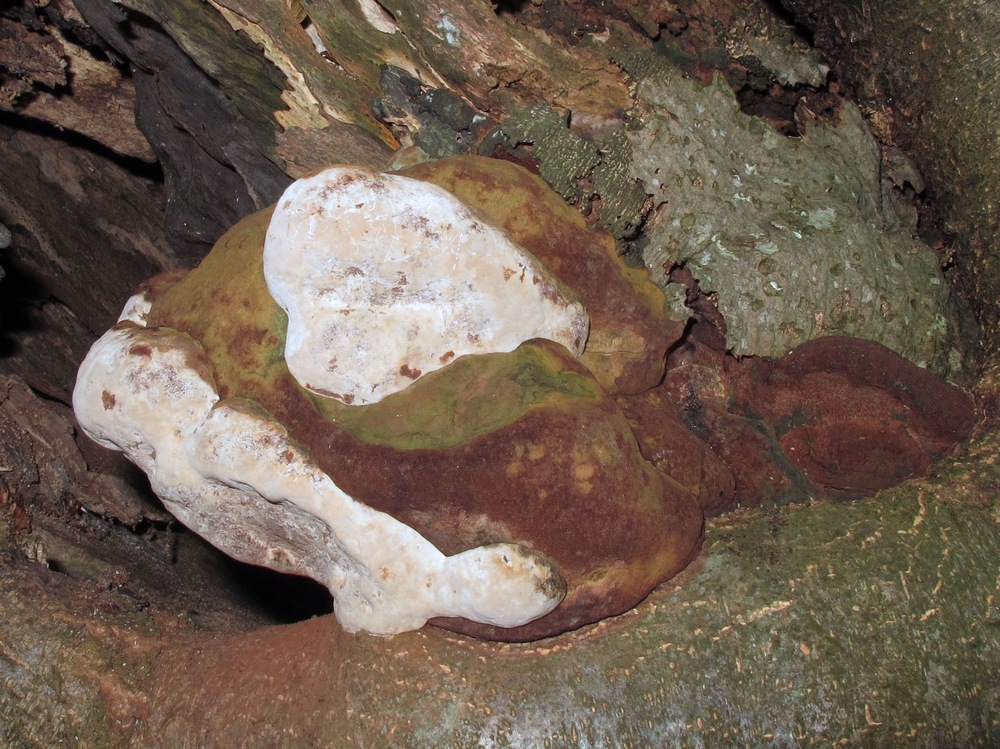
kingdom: Fungi
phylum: Basidiomycota
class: Agaricomycetes
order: Polyporales
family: Polyporaceae
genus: Ganoderma
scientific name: Ganoderma adspersum
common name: grov lakporesvamp
